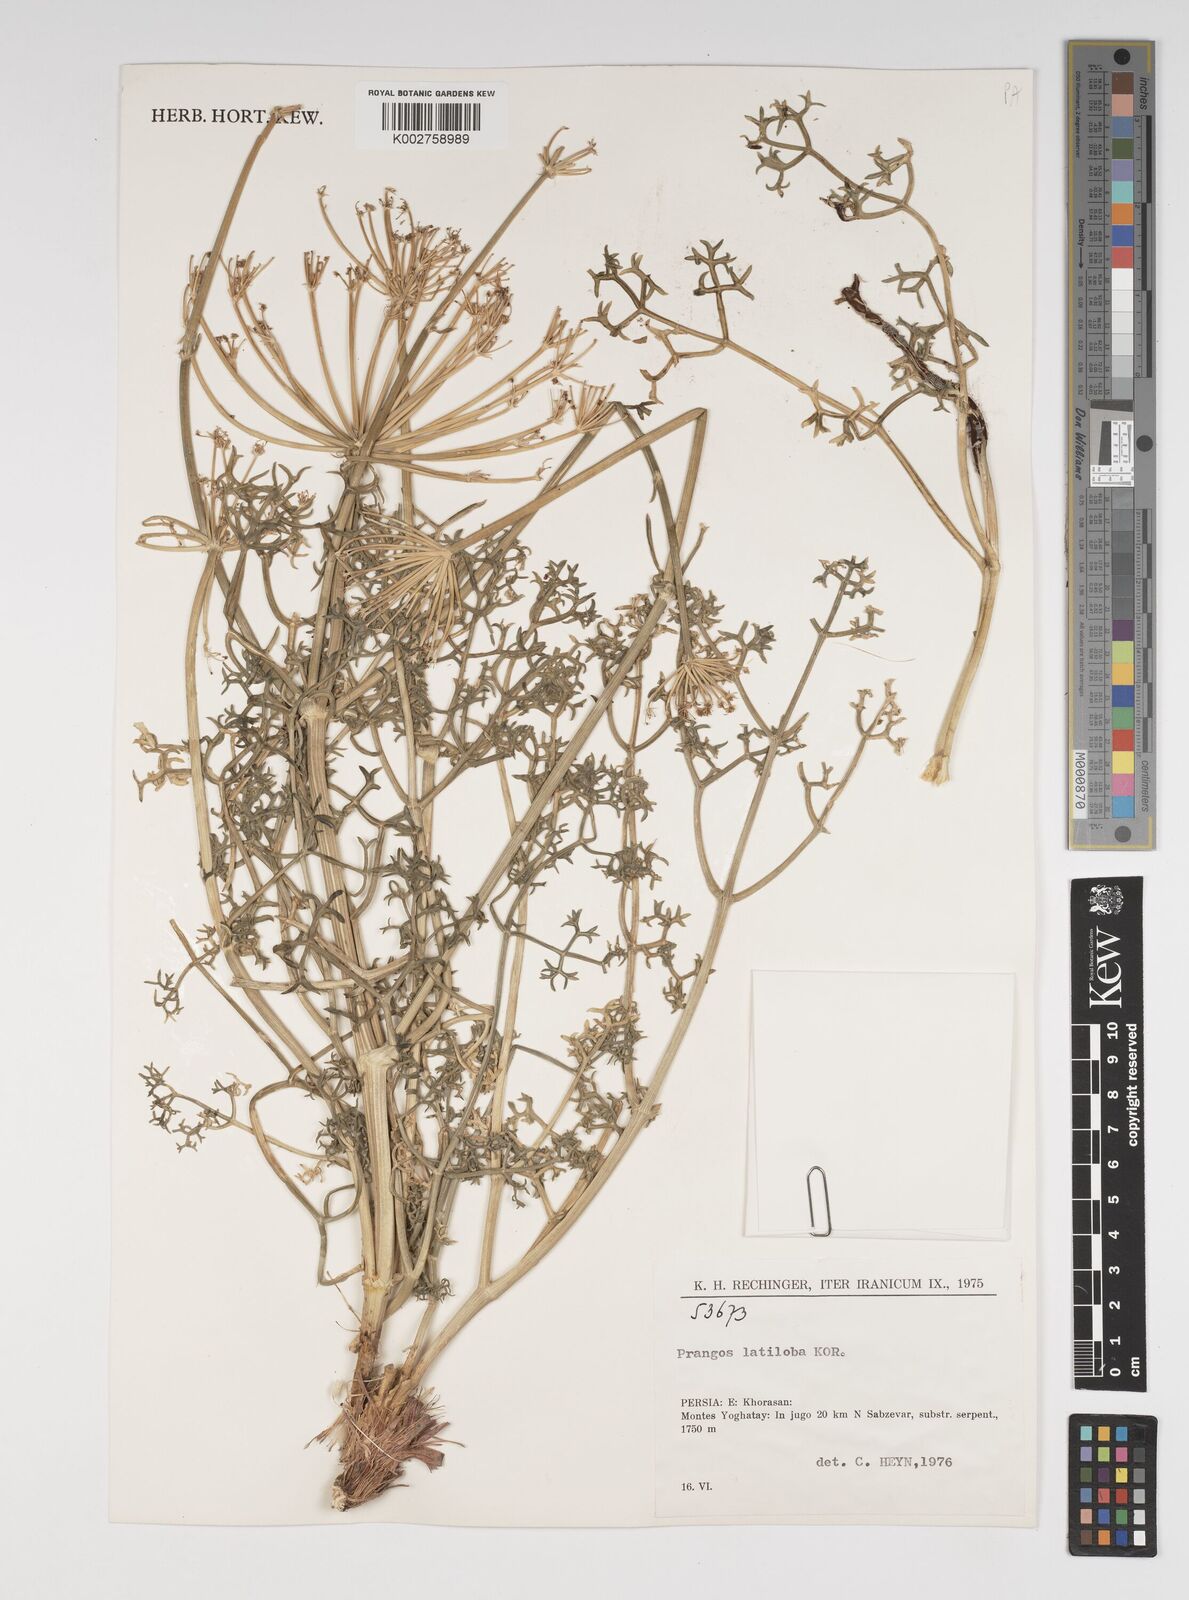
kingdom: Plantae
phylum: Tracheophyta
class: Magnoliopsida
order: Apiales
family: Apiaceae
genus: Prangos
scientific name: Prangos latiloba
